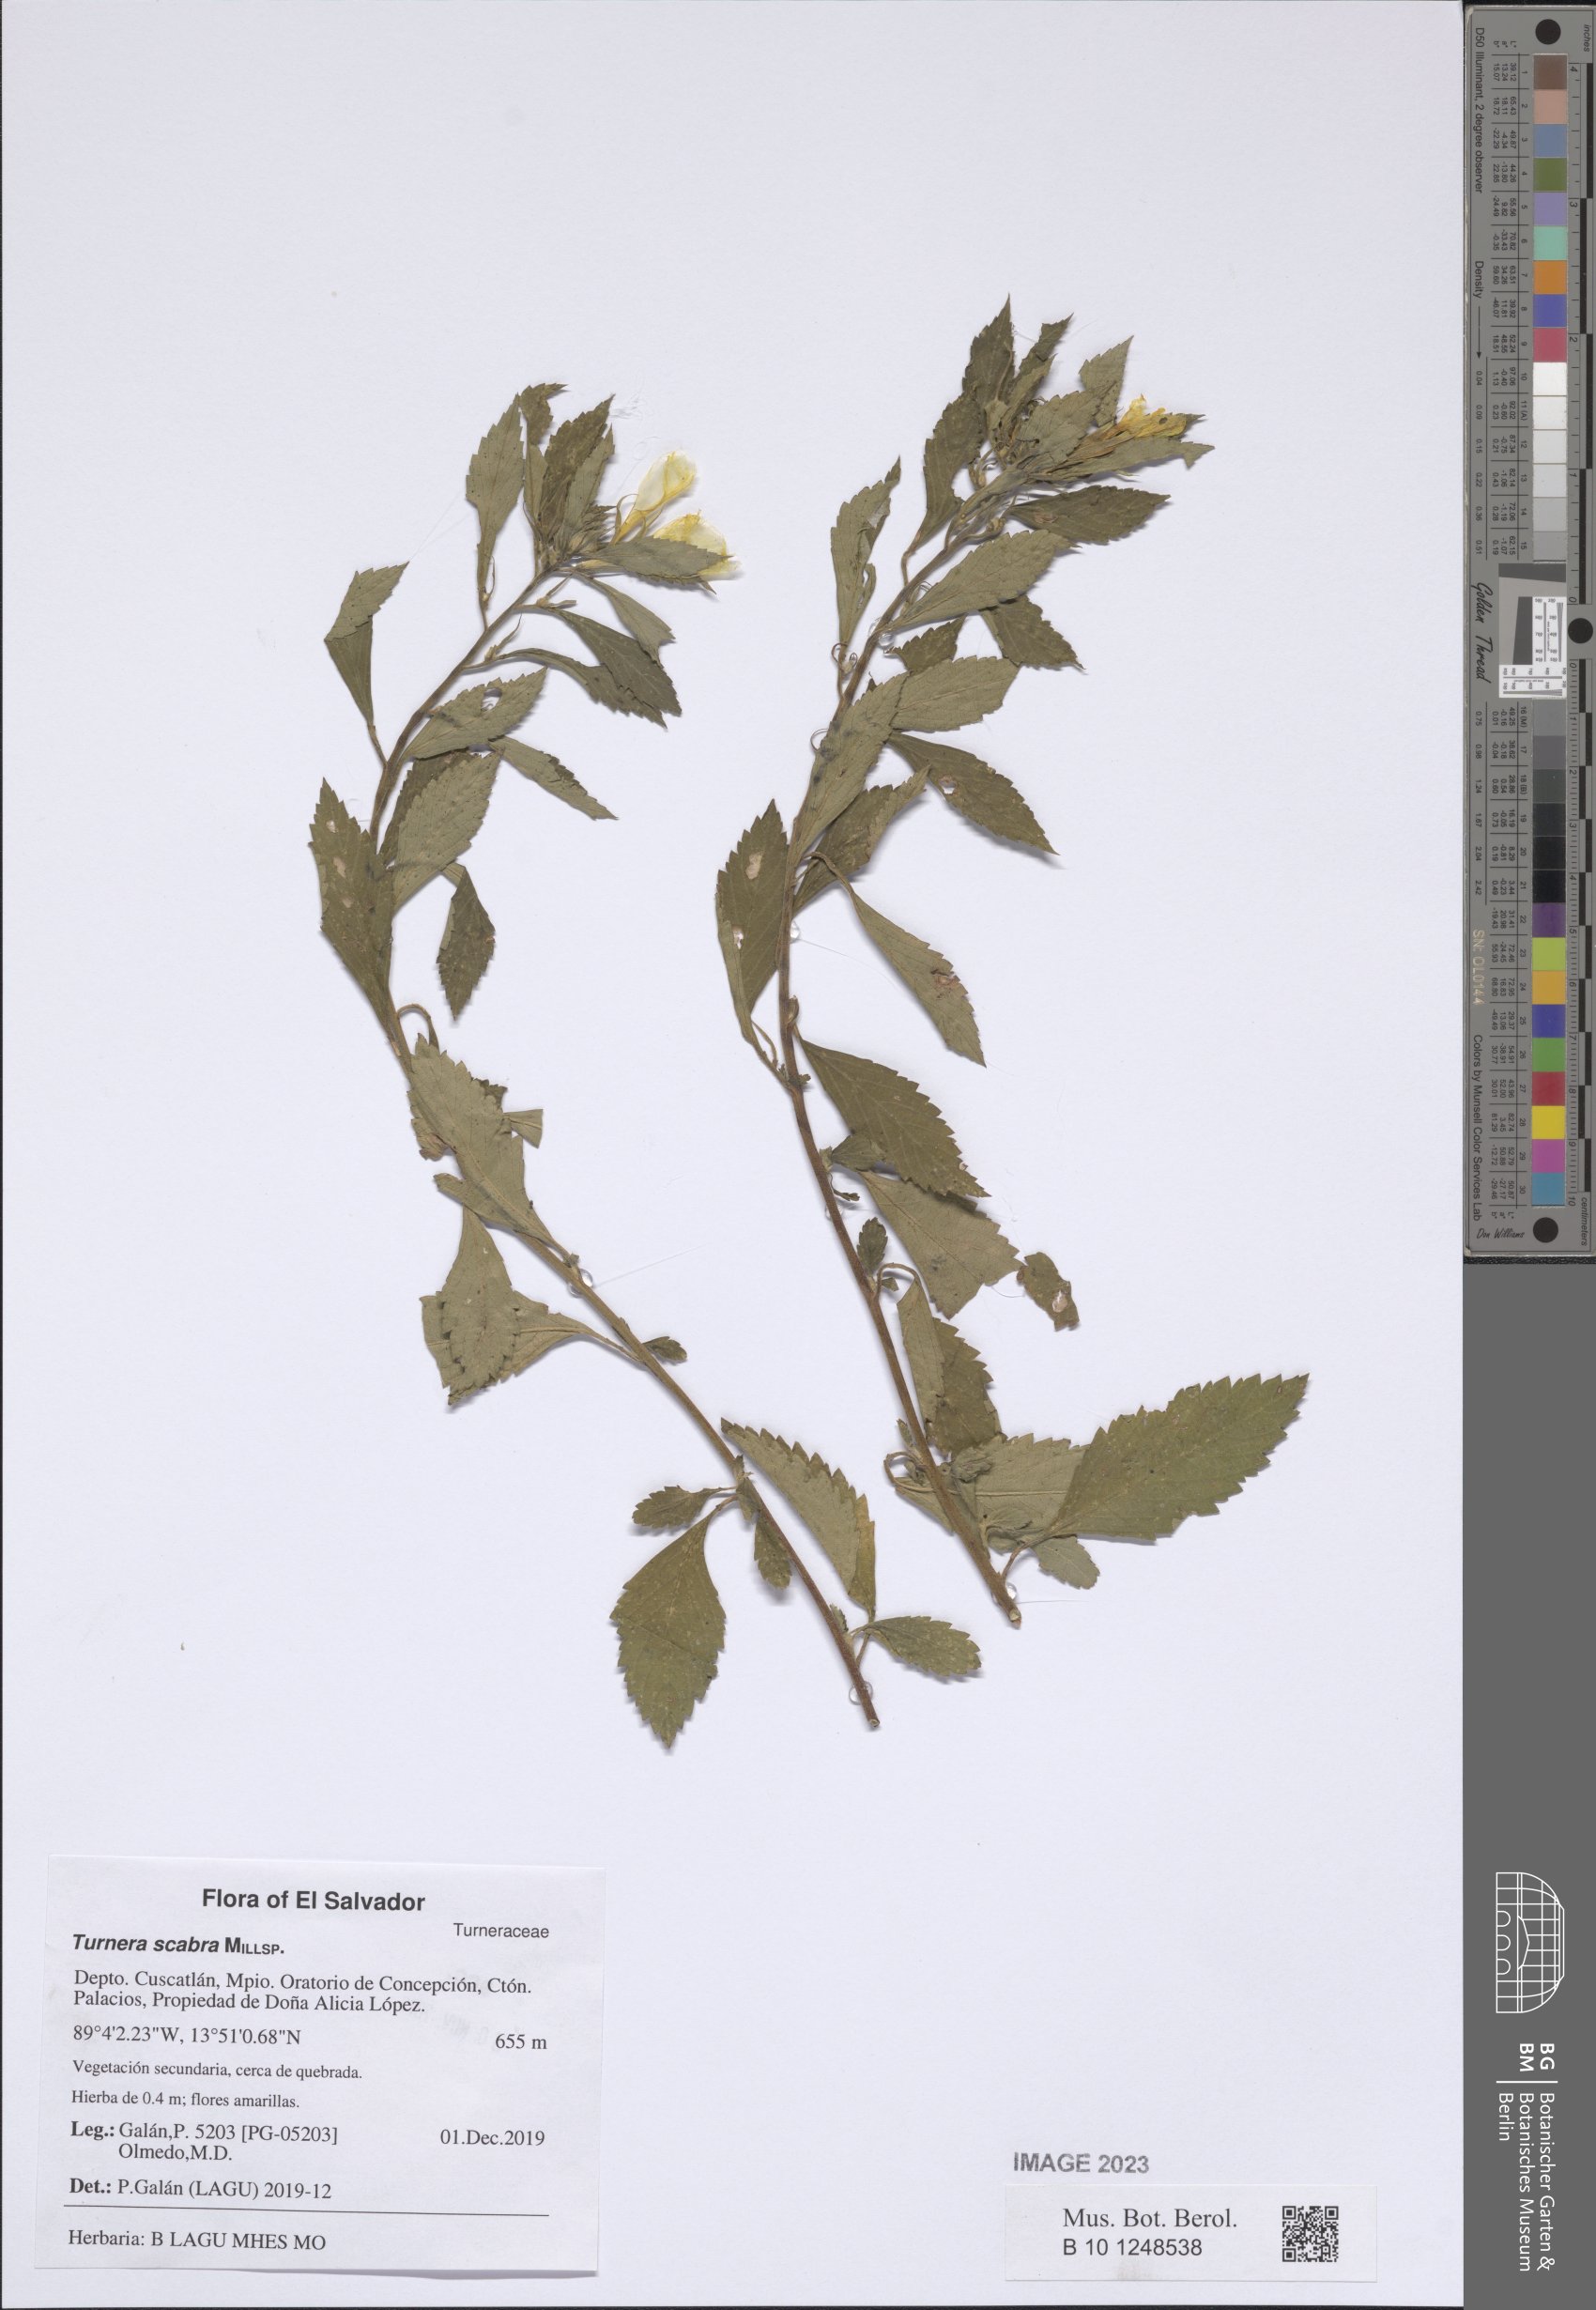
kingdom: Plantae
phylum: Tracheophyta
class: Magnoliopsida
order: Malpighiales
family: Turneraceae
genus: Turnera
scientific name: Turnera scabra
